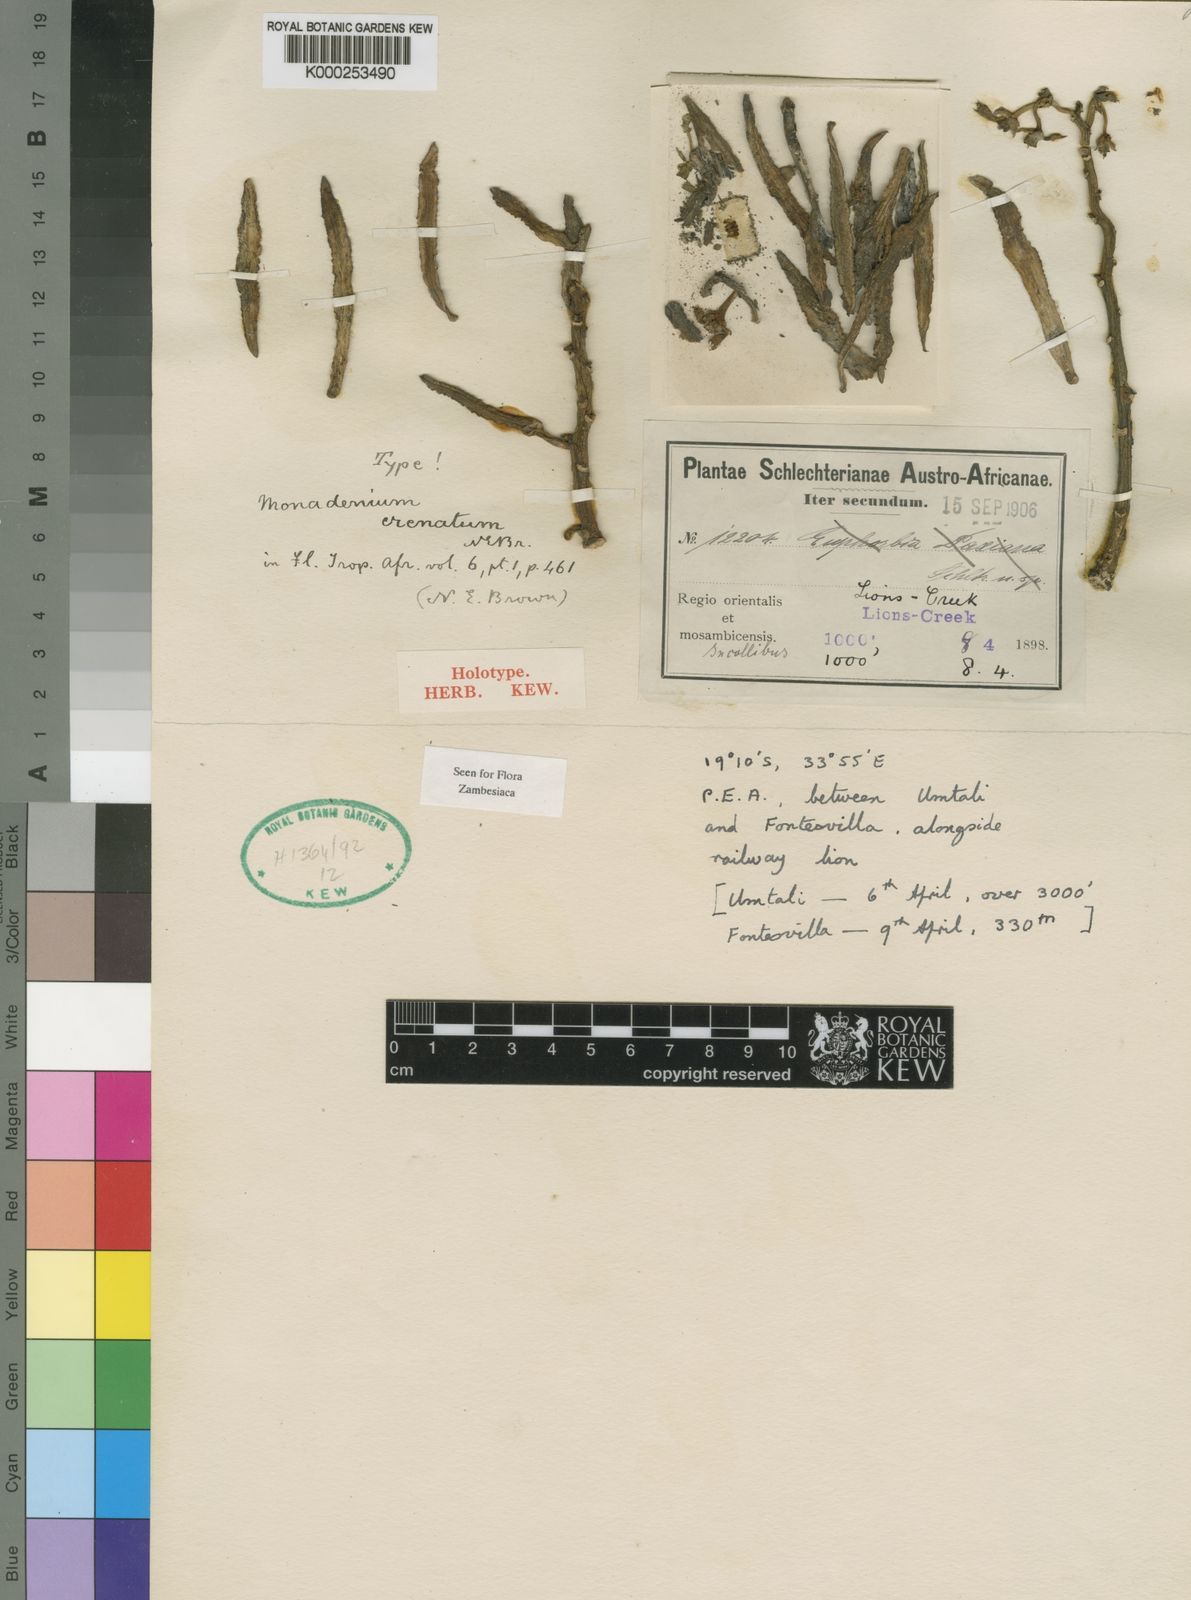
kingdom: Plantae
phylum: Tracheophyta
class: Magnoliopsida
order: Malpighiales
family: Euphorbiaceae
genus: Euphorbia
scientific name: Euphorbia crenata
